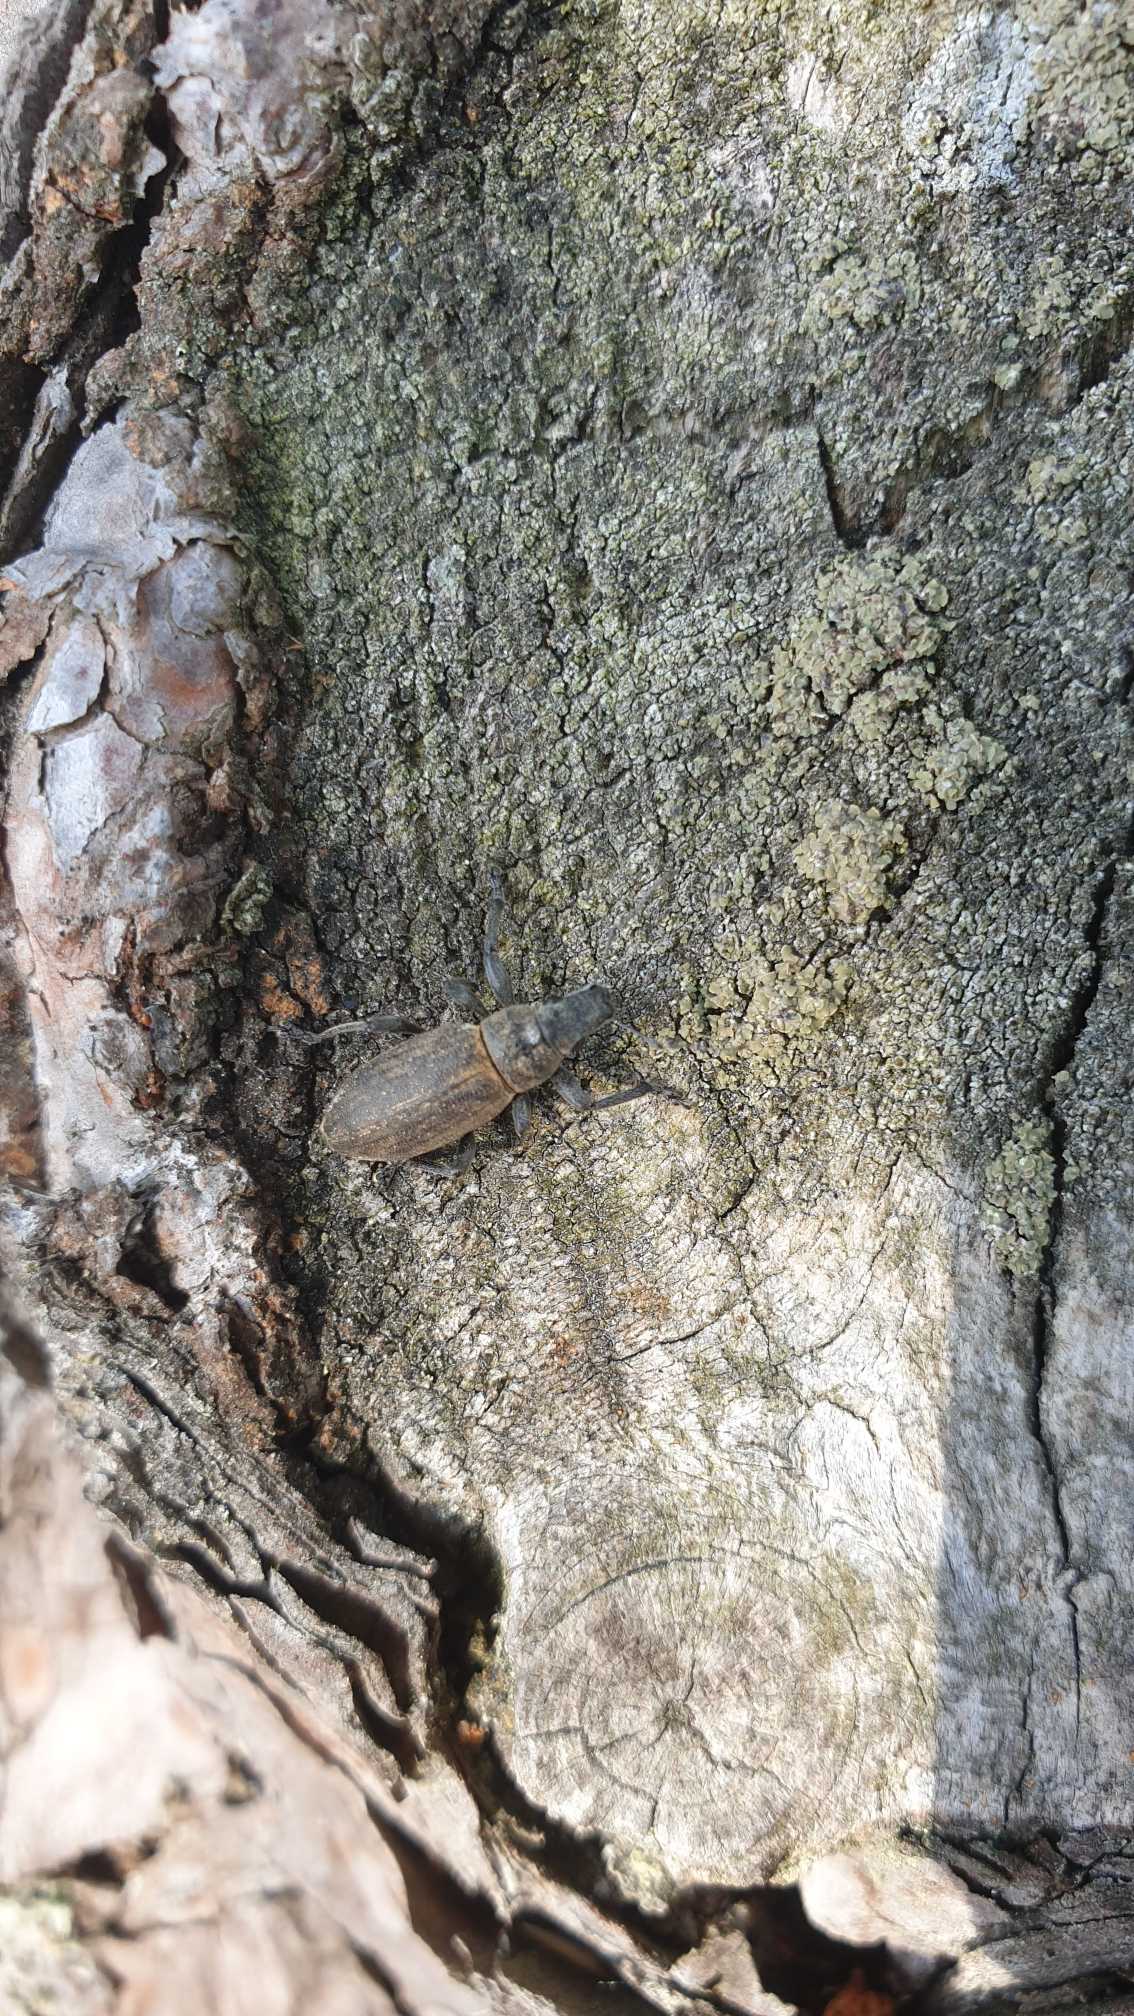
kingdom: Animalia
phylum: Arthropoda
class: Insecta
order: Coleoptera
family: Curculionidae
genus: Brachyderes
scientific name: Brachyderes lusitanicus
